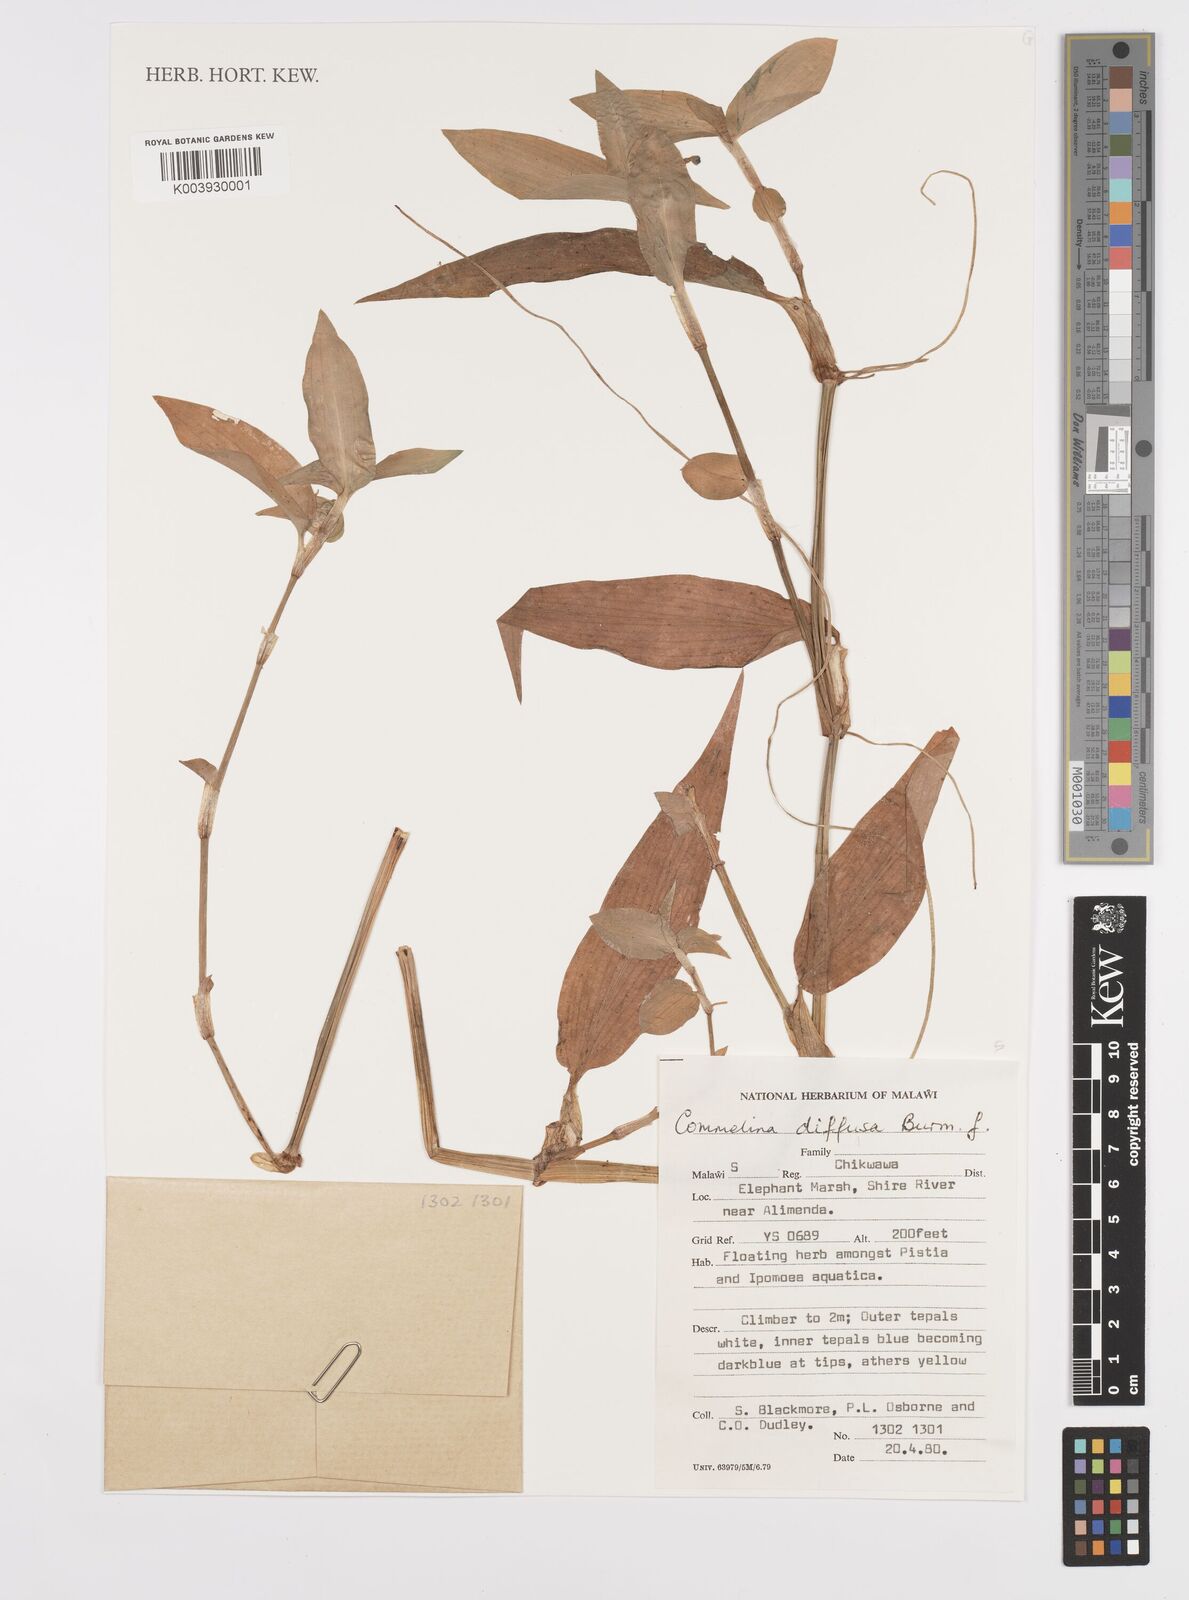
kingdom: Plantae
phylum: Tracheophyta
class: Liliopsida
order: Commelinales
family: Commelinaceae
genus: Commelina
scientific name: Commelina diffusa
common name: Climbing dayflower
